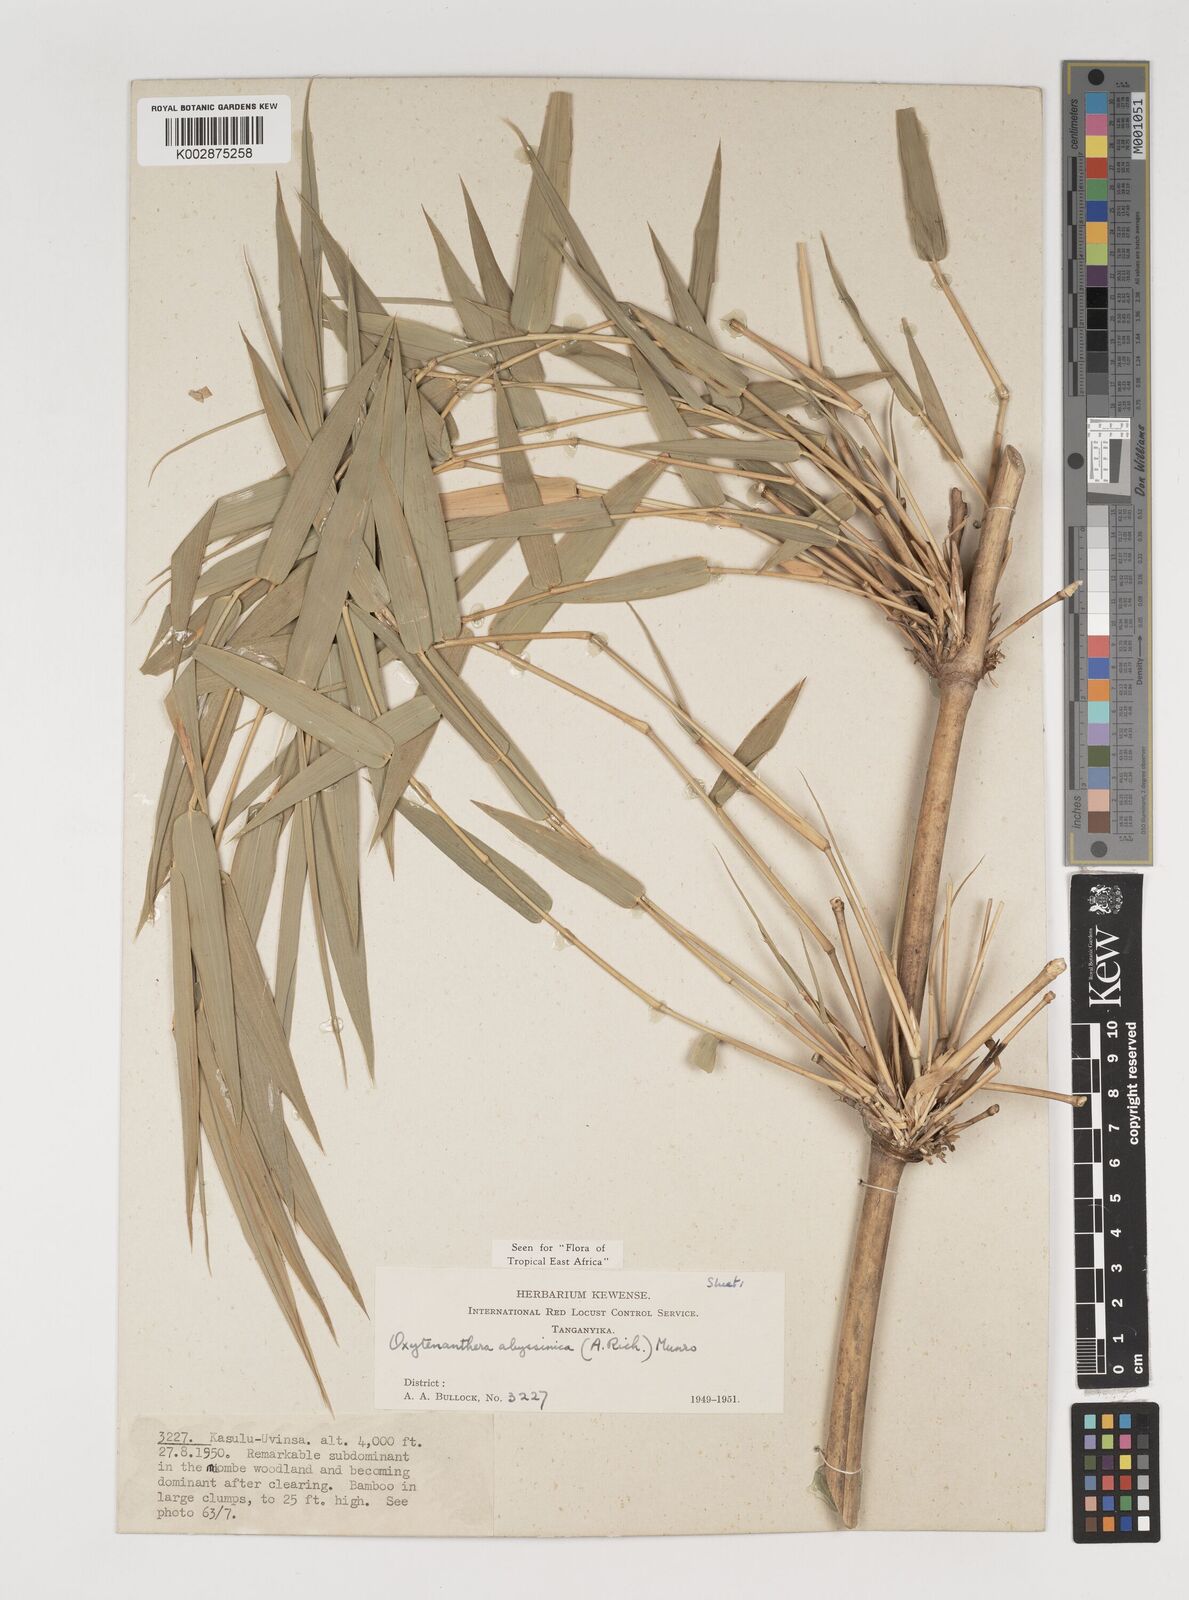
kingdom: Plantae
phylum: Tracheophyta
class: Liliopsida
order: Poales
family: Poaceae
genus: Oxytenanthera
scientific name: Oxytenanthera abyssinica
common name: Wine bamboo
